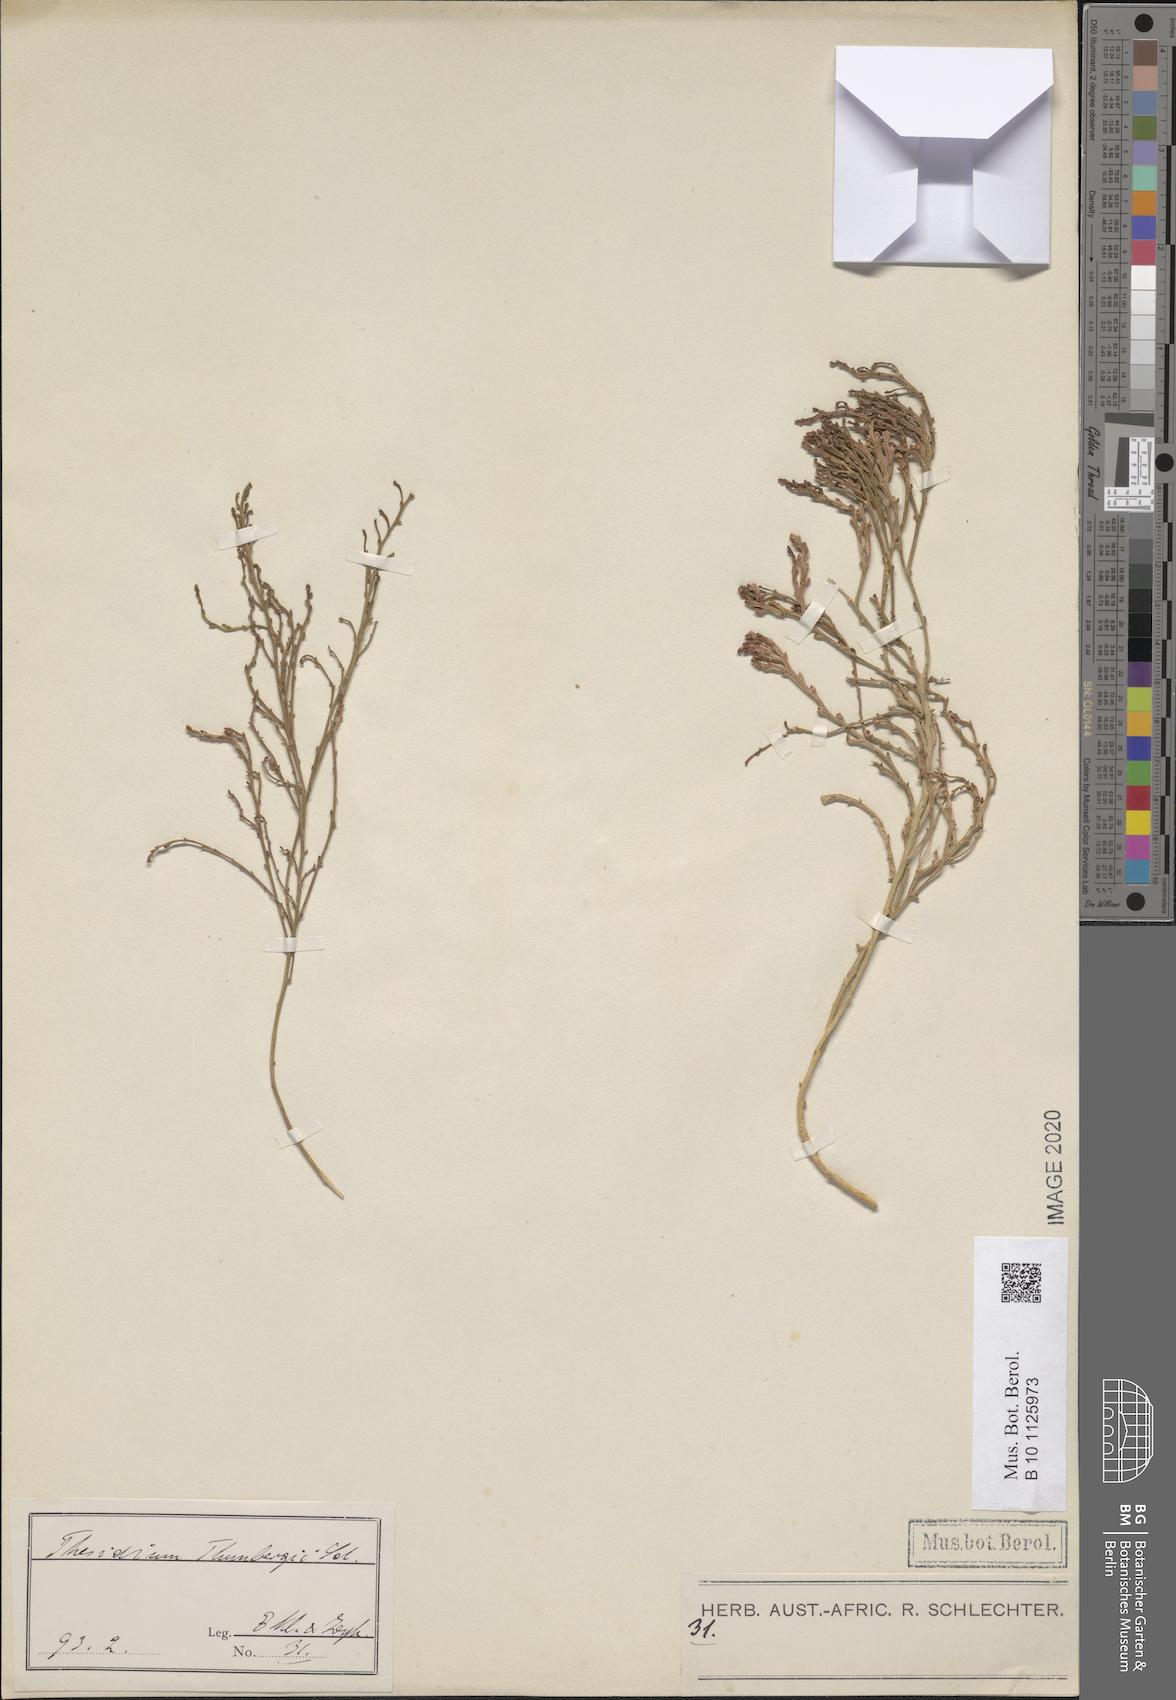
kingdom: Plantae
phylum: Tracheophyta
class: Magnoliopsida
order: Santalales
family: Thesiaceae
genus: Thesium
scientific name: Thesium fragile
